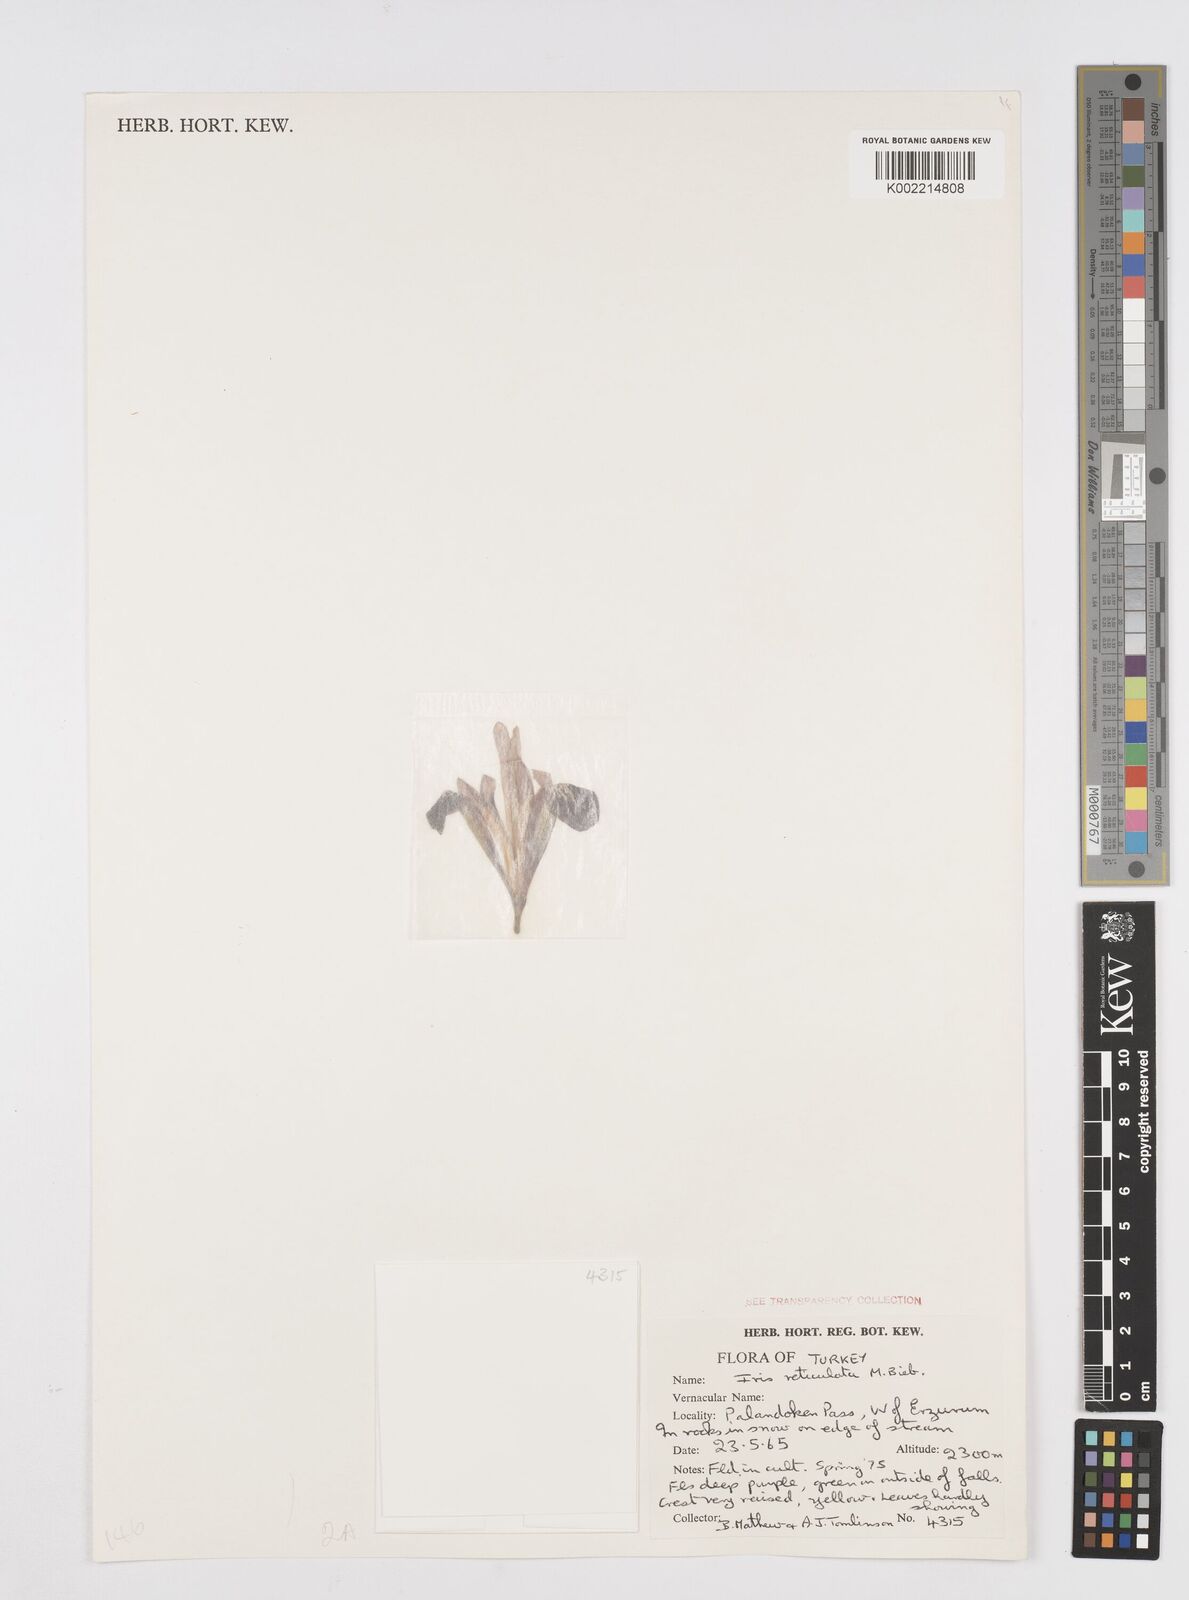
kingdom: Plantae
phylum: Tracheophyta
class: Liliopsida
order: Asparagales
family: Iridaceae
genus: Iris
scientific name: Iris reticulata
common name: Netted iris
